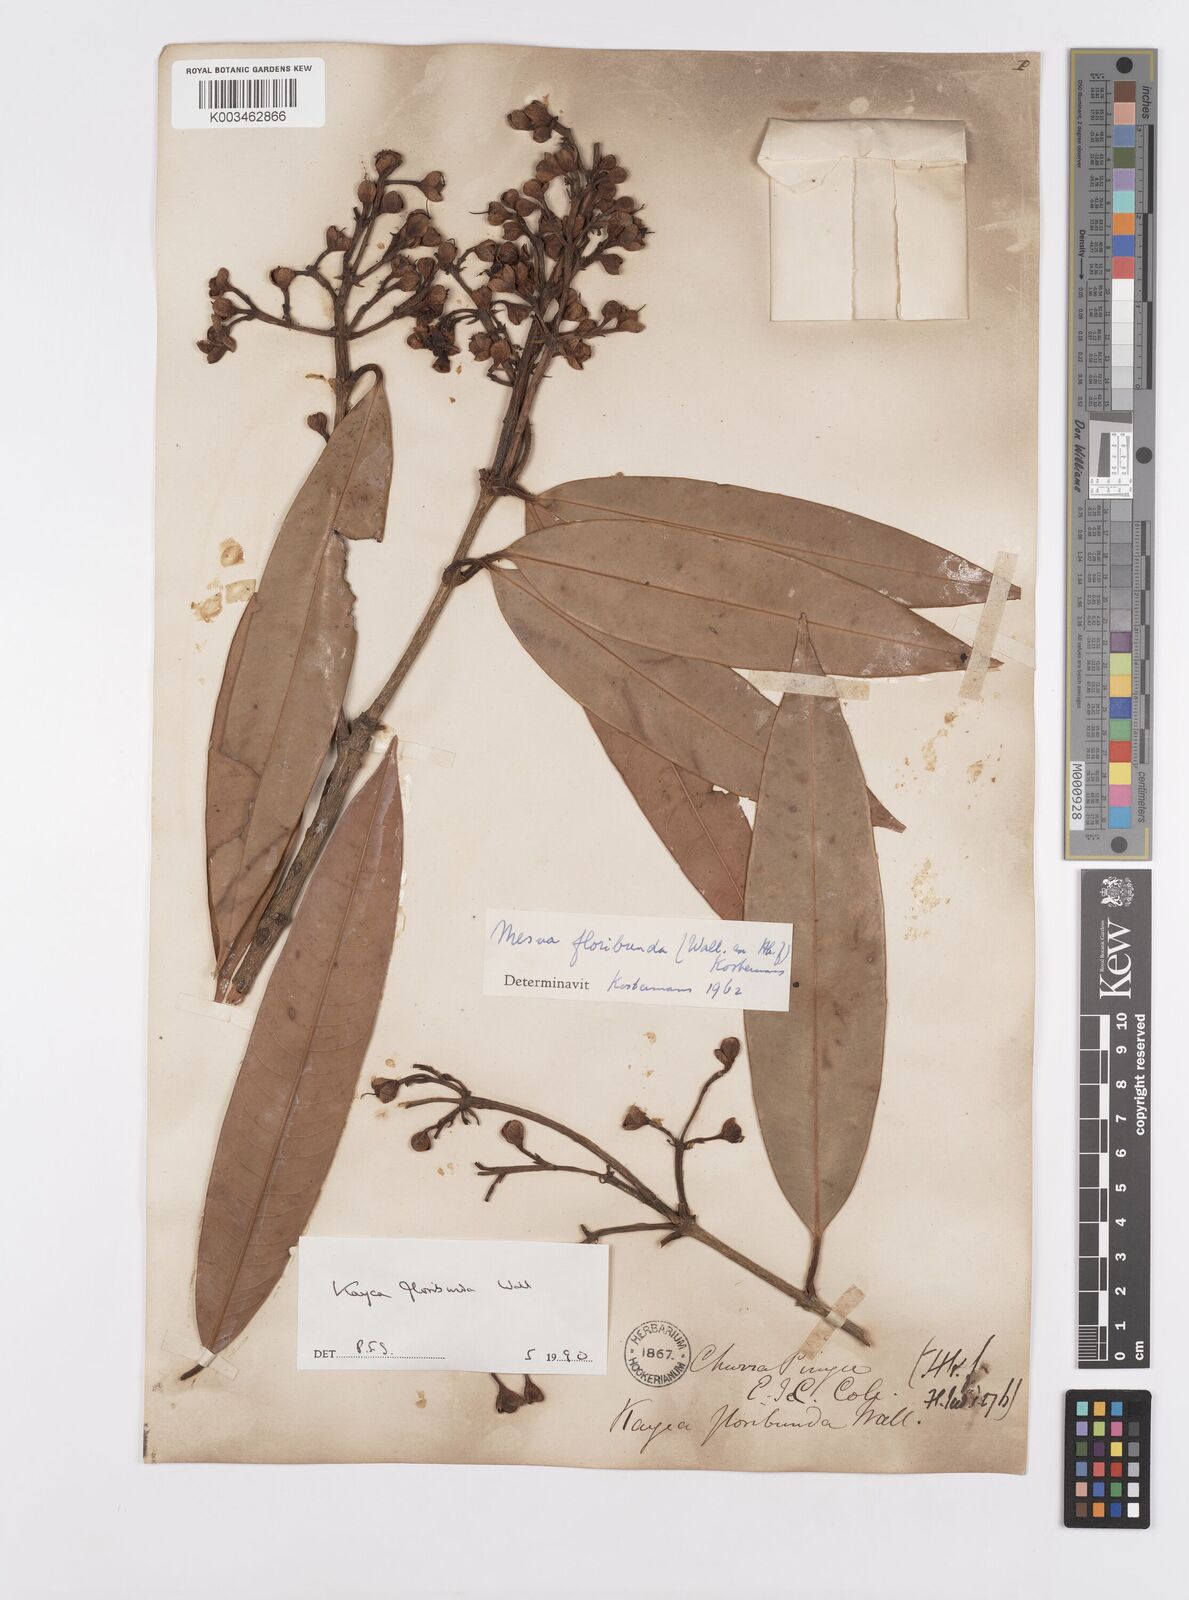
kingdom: Plantae
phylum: Tracheophyta
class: Magnoliopsida
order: Malpighiales
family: Calophyllaceae
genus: Kayea
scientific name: Kayea floribunda
